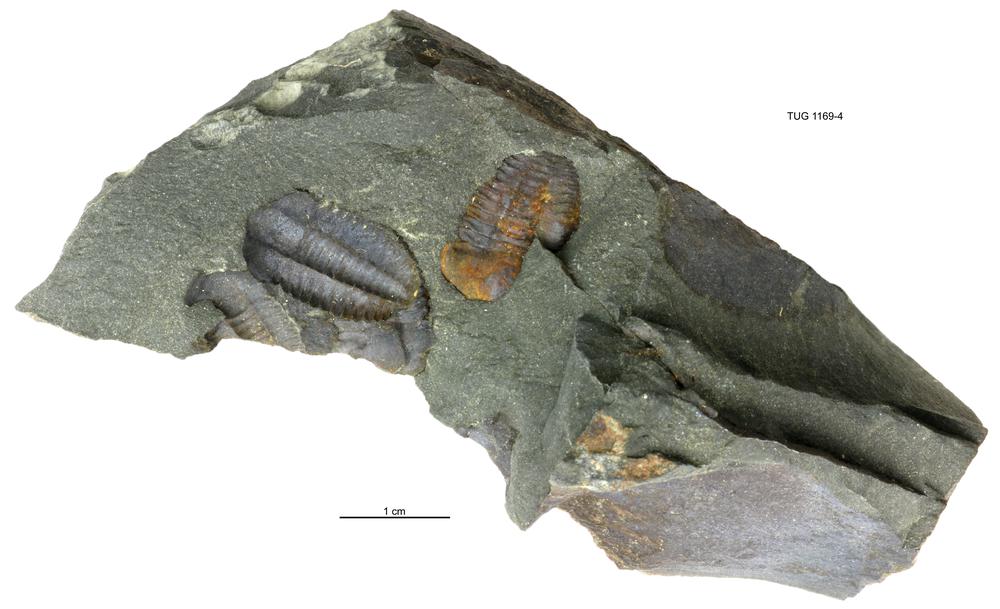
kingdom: Animalia
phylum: Arthropoda
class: Trilobita
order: Ptychopariida
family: Ellipsocephalidae
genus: Ellipsocephalus
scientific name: Ellipsocephalus
